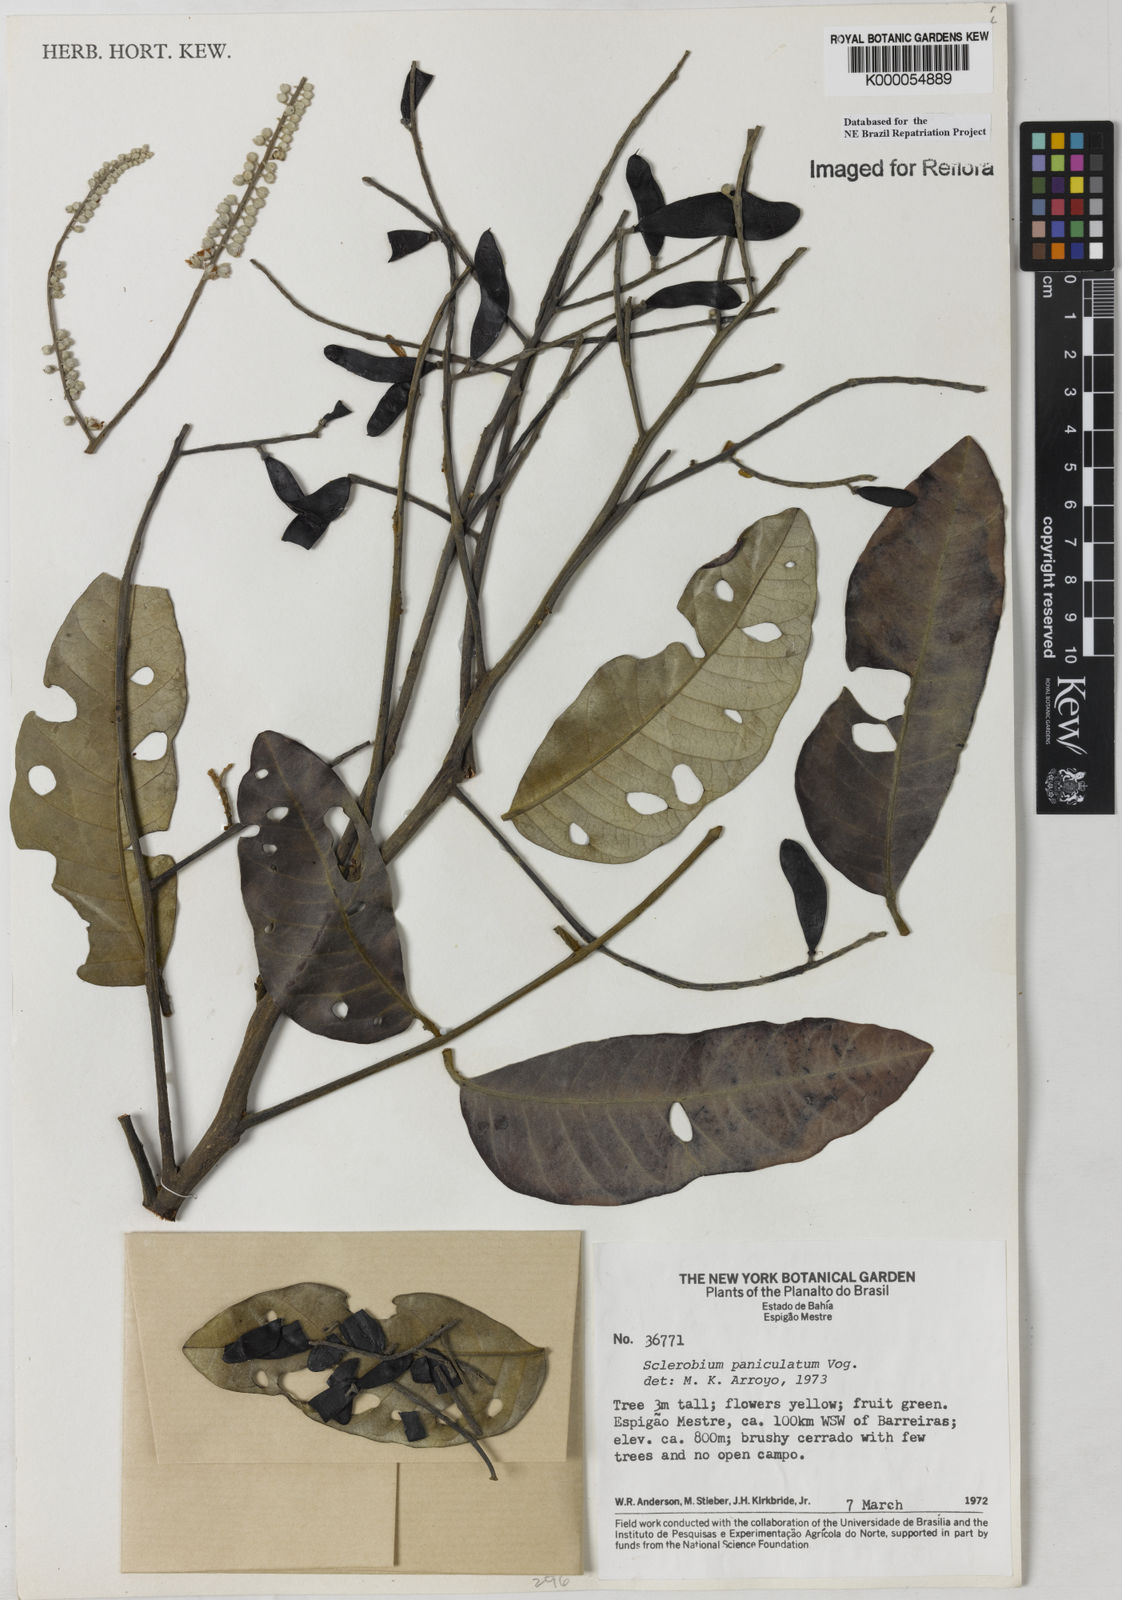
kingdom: Plantae
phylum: Tracheophyta
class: Magnoliopsida
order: Fabales
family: Fabaceae
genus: Tachigali
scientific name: Tachigali vulgaris
